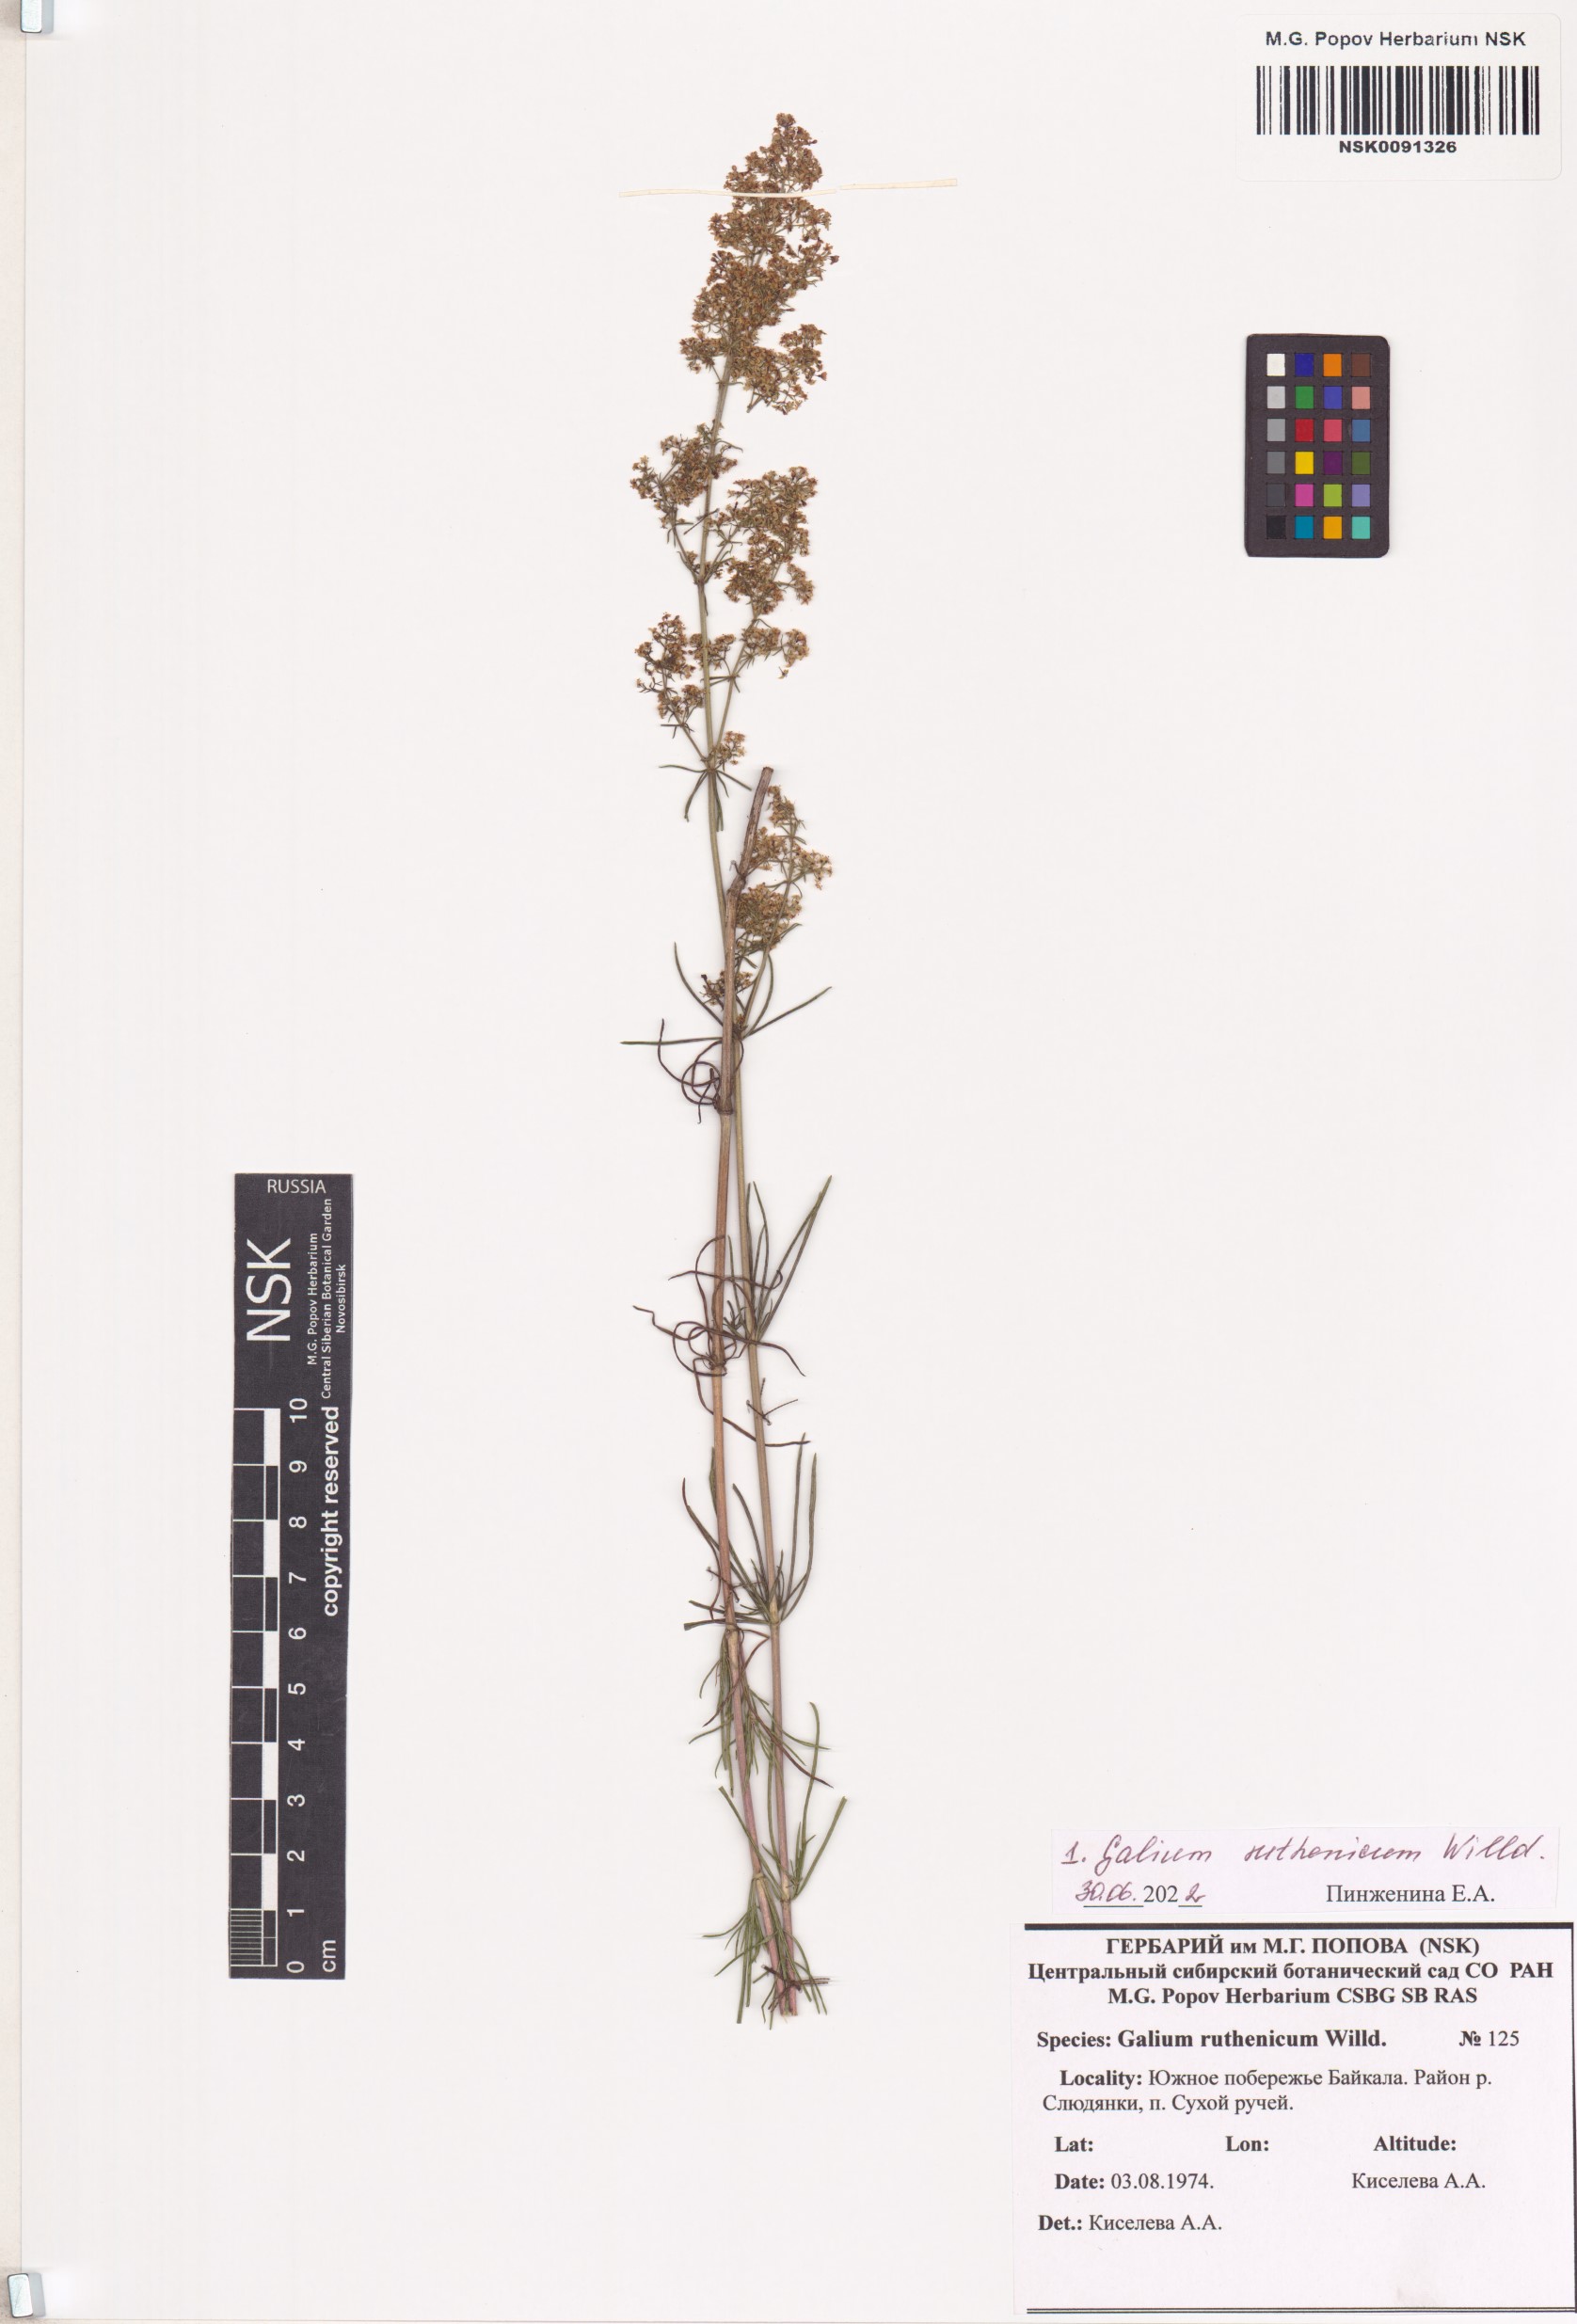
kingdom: Plantae
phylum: Tracheophyta
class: Magnoliopsida
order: Gentianales
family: Rubiaceae
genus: Galium
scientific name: Galium verum
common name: Lady's bedstraw
